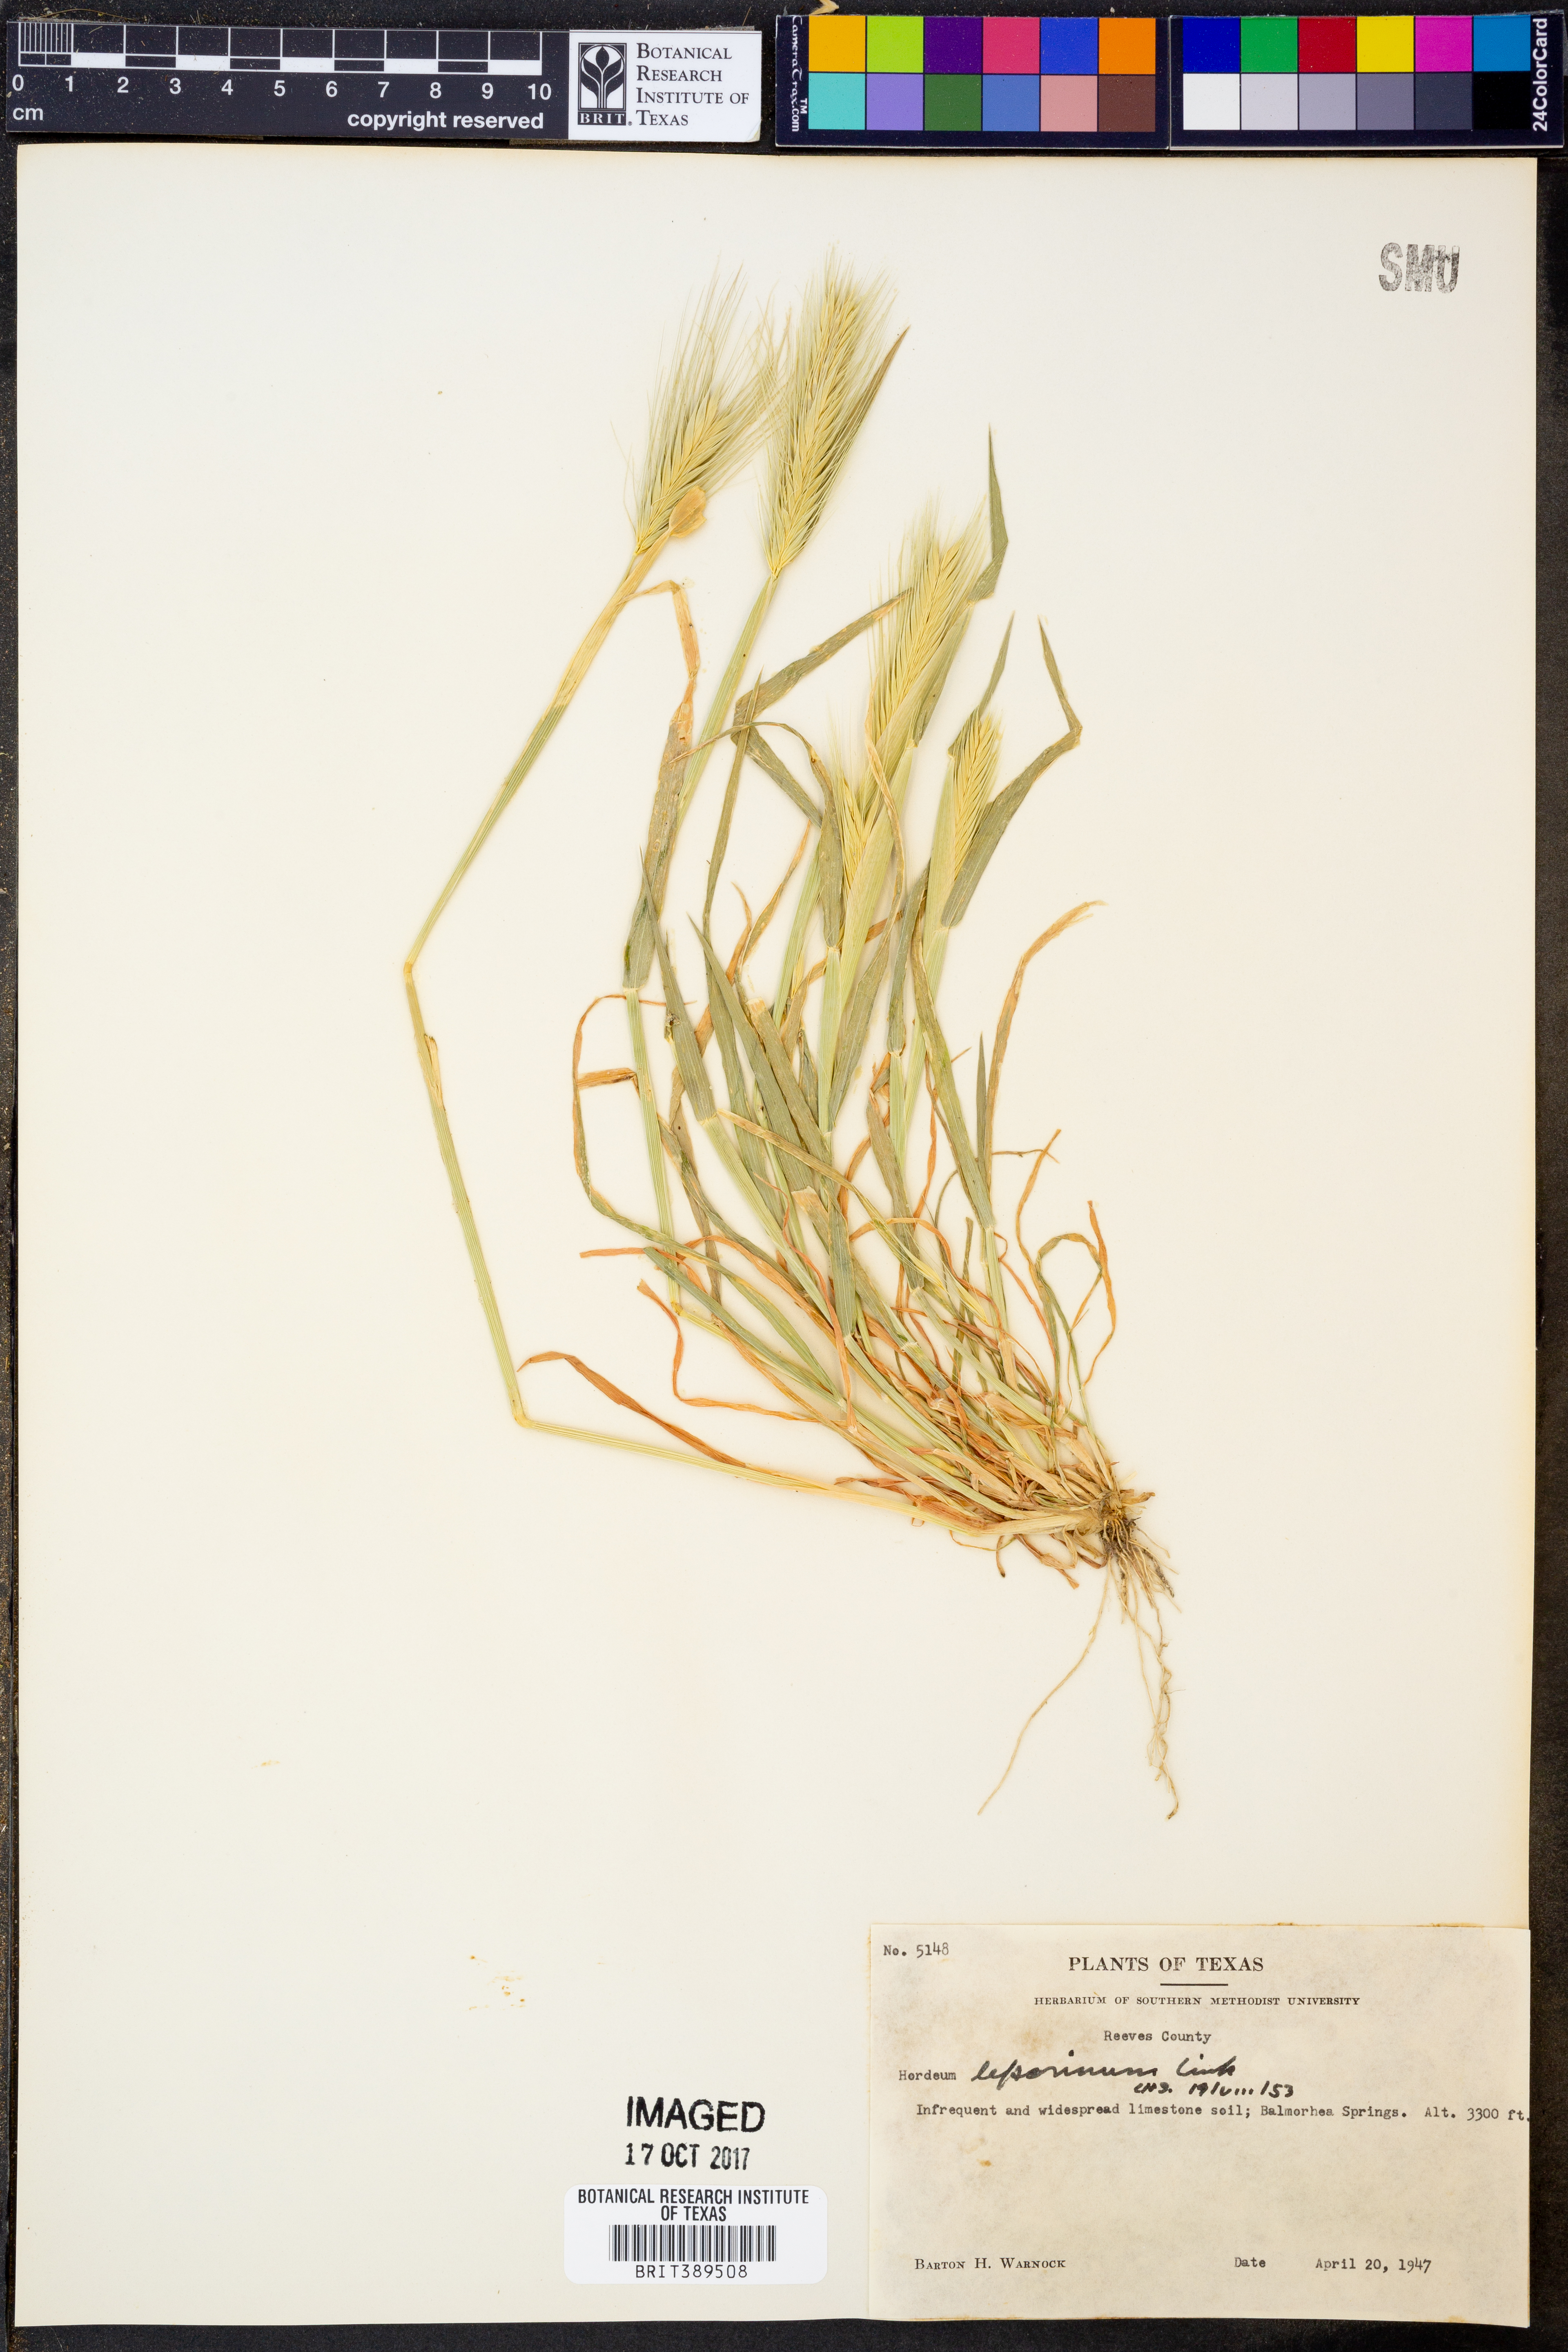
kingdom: Plantae
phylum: Tracheophyta
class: Liliopsida
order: Poales
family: Poaceae
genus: Hordeum
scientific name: Hordeum murinum
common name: Wall barley
